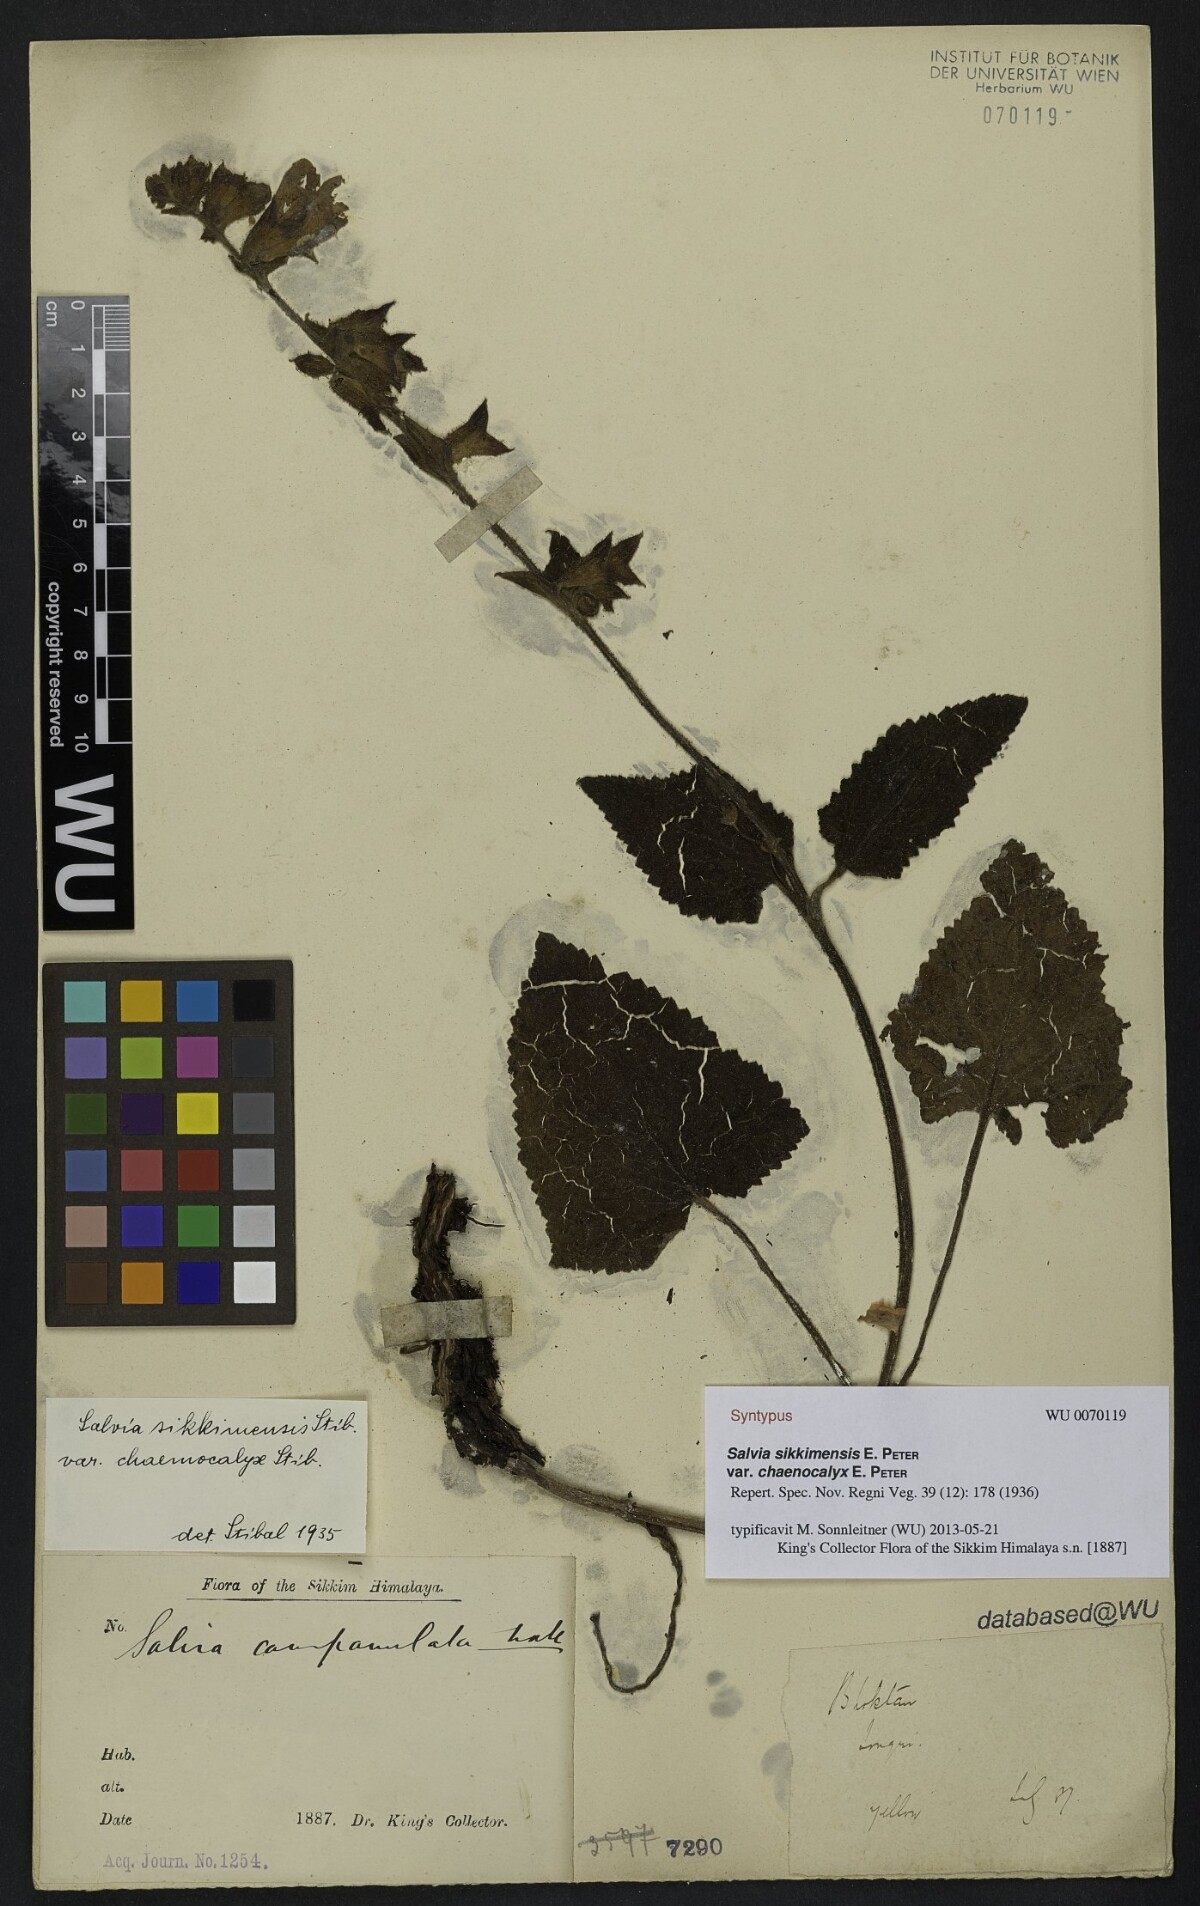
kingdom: Plantae
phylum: Tracheophyta
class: Magnoliopsida
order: Lamiales
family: Lamiaceae
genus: Salvia
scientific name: Salvia sikkimensis
